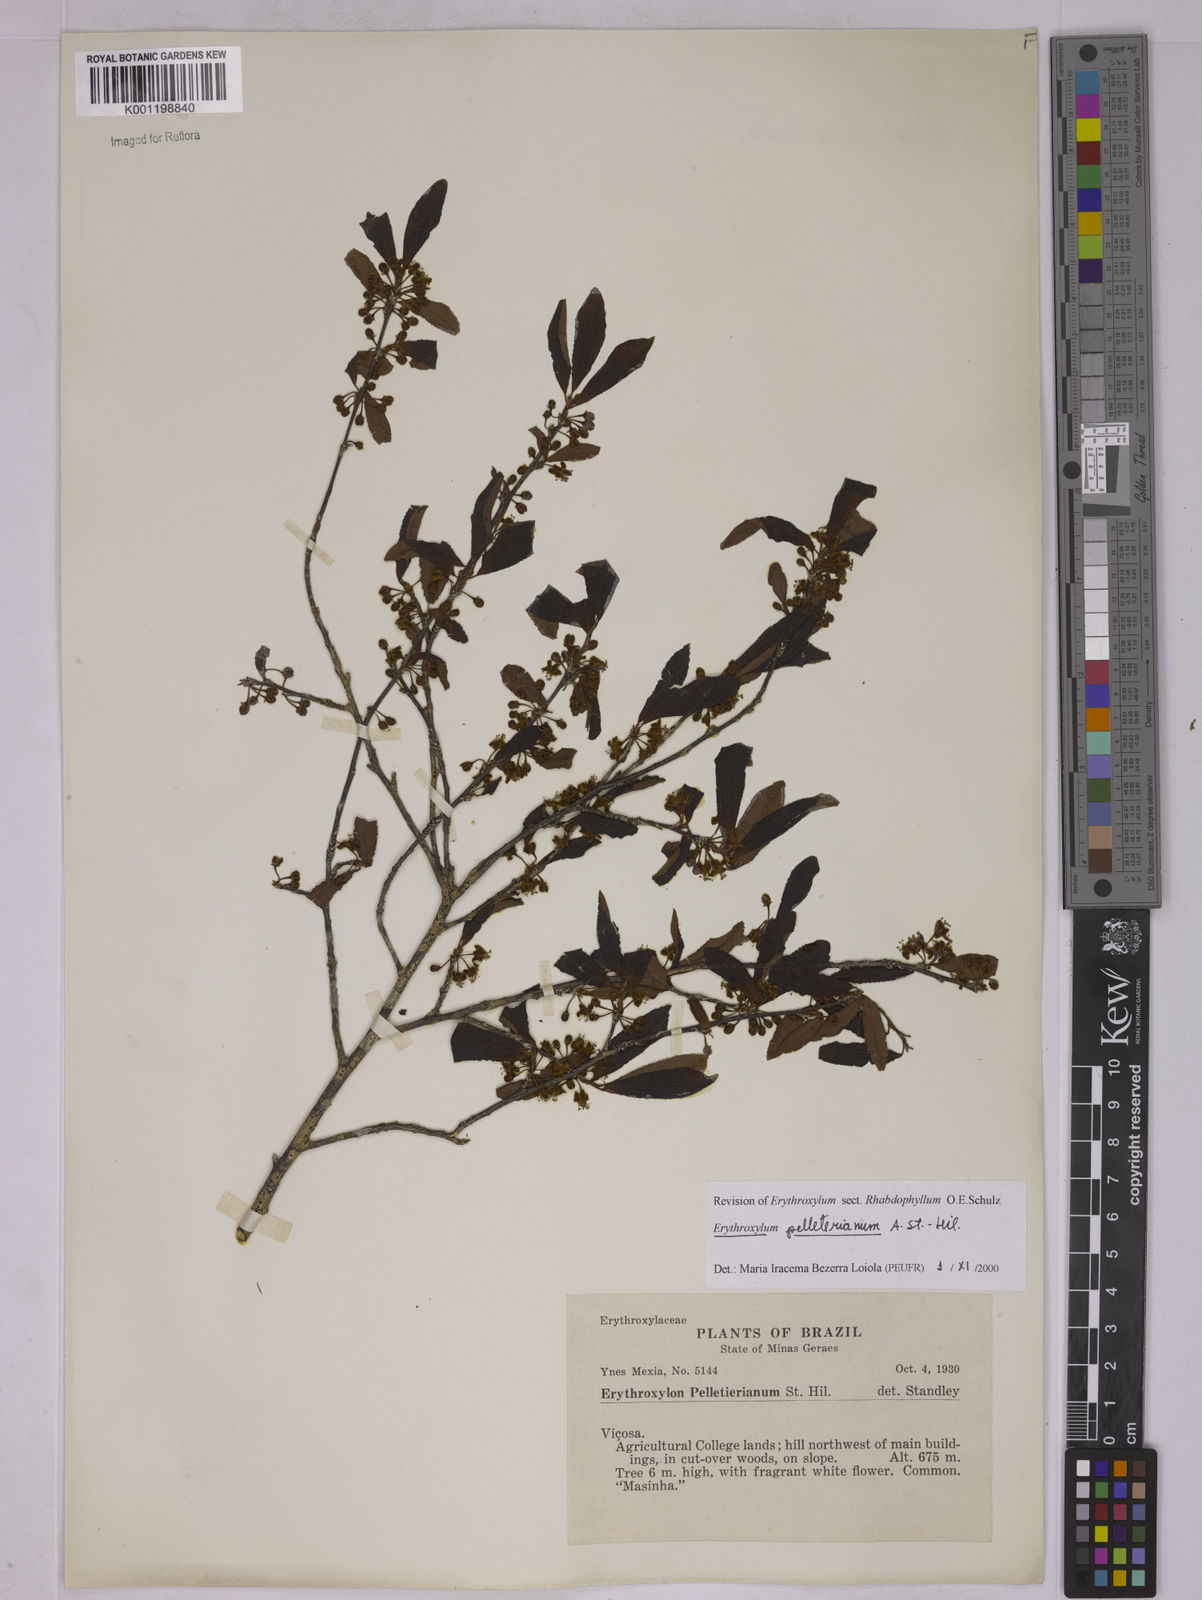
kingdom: Plantae
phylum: Tracheophyta
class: Magnoliopsida
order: Malpighiales
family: Erythroxylaceae
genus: Erythroxylum
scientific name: Erythroxylum pelleterianum
